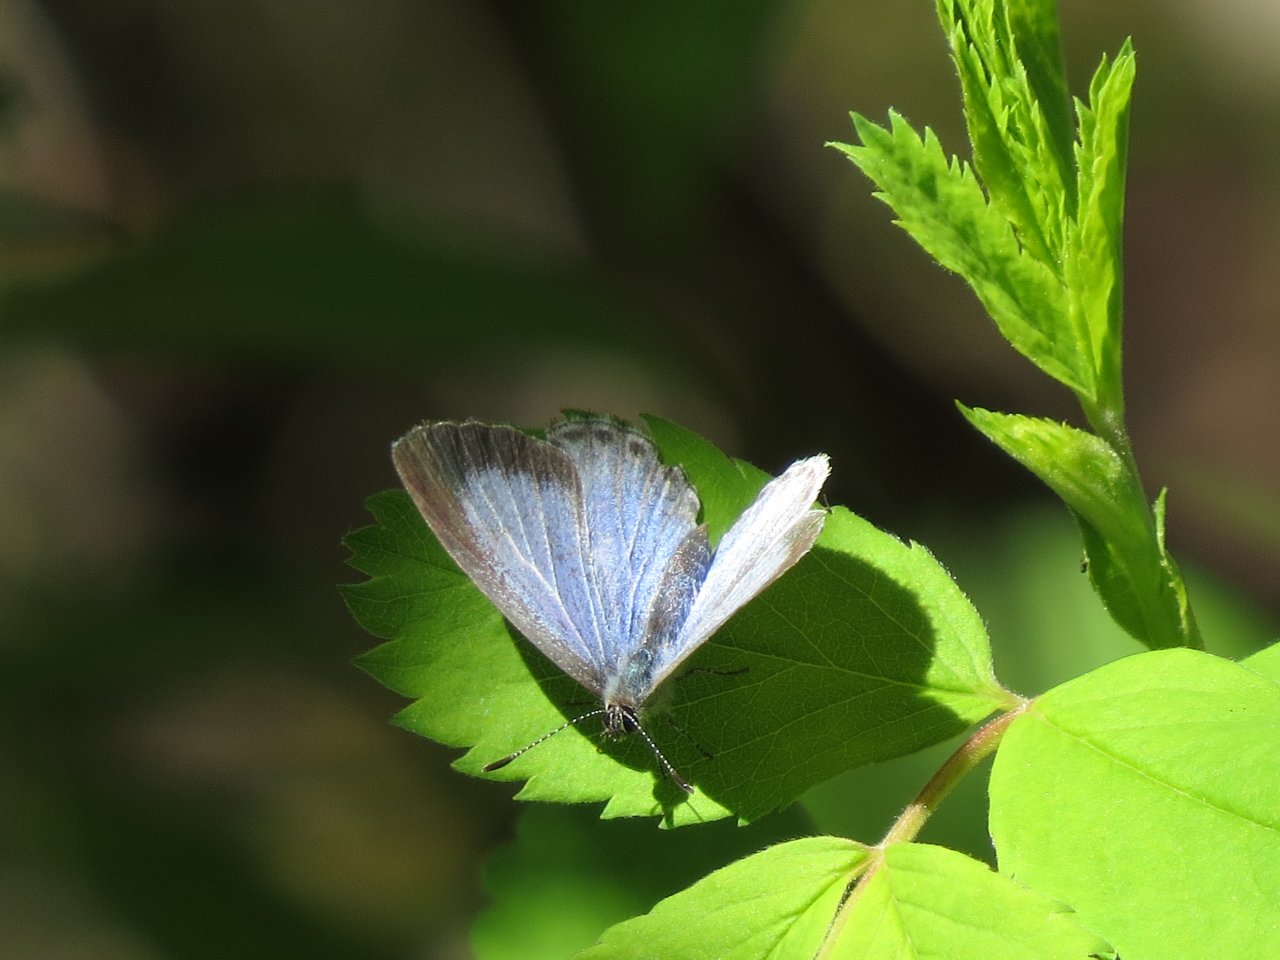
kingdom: Animalia
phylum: Arthropoda
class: Insecta
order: Lepidoptera
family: Lycaenidae
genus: Celastrina
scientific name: Celastrina lucia
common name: Northern Spring Azure
